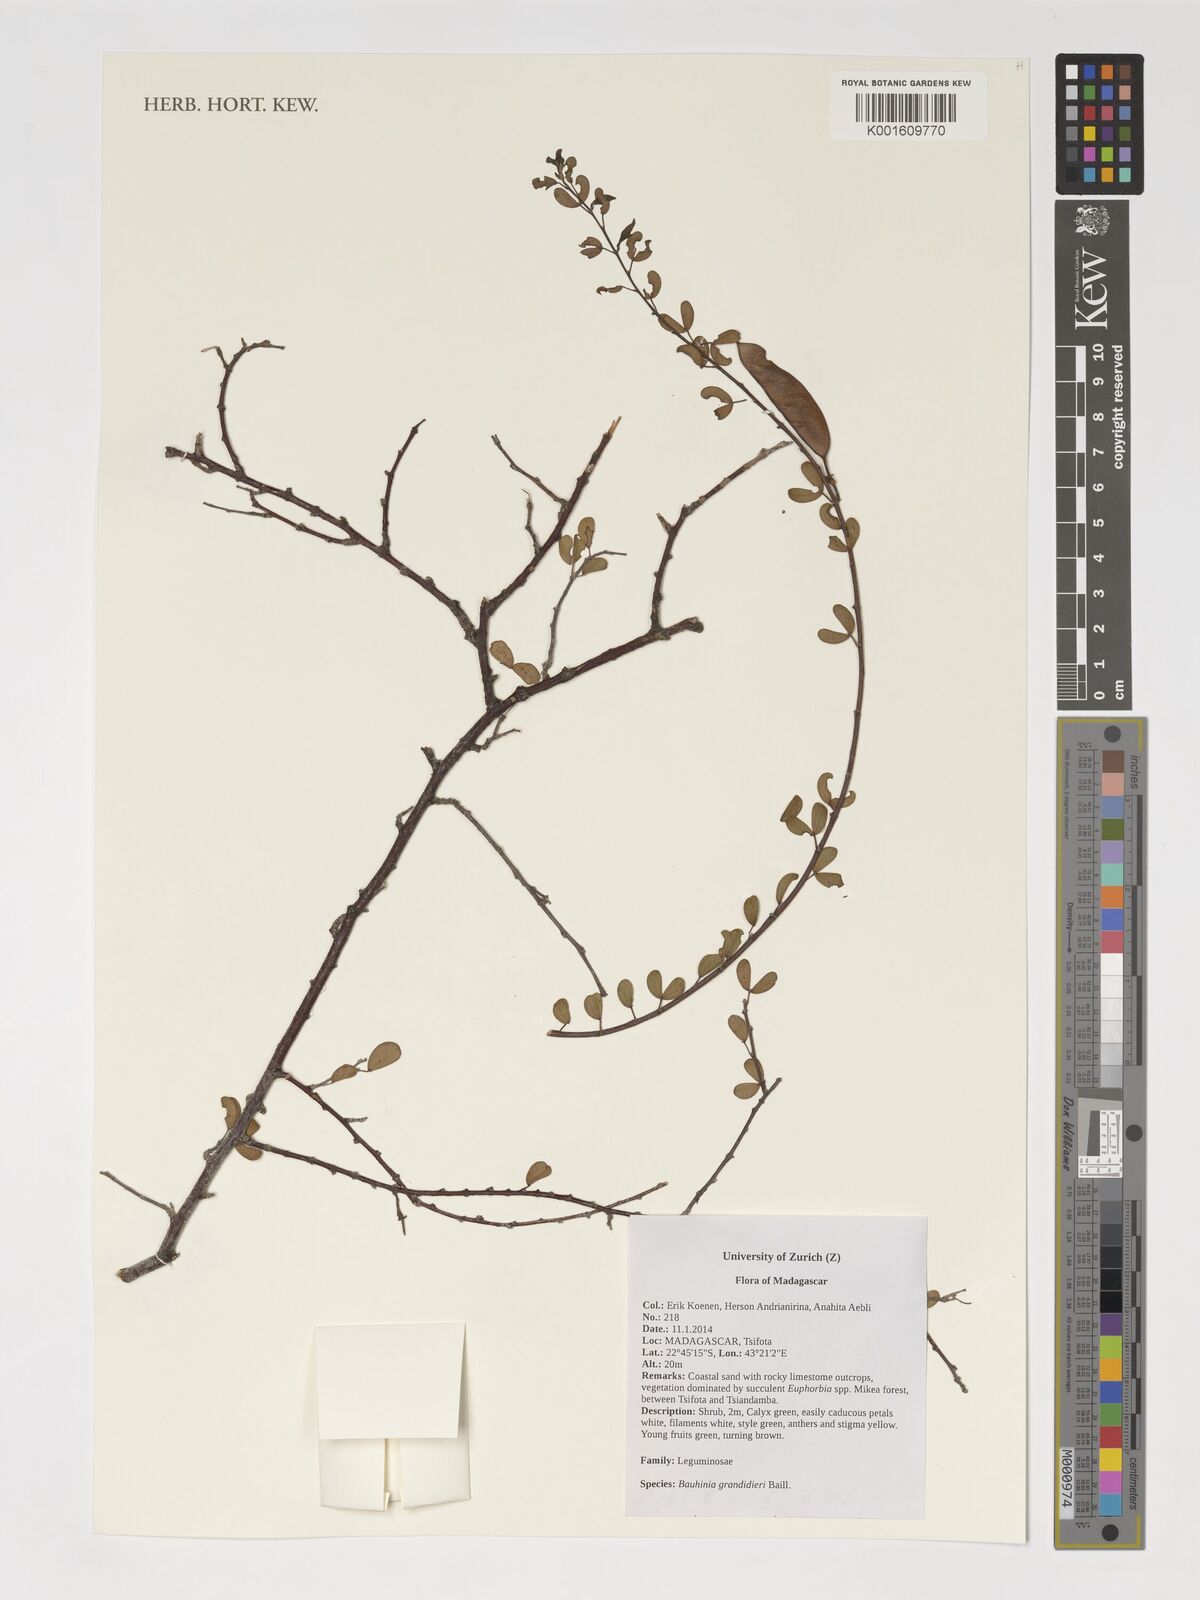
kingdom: Plantae
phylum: Tracheophyta
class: Magnoliopsida
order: Fabales
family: Fabaceae
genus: Bauhinia
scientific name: Bauhinia grandidieri
